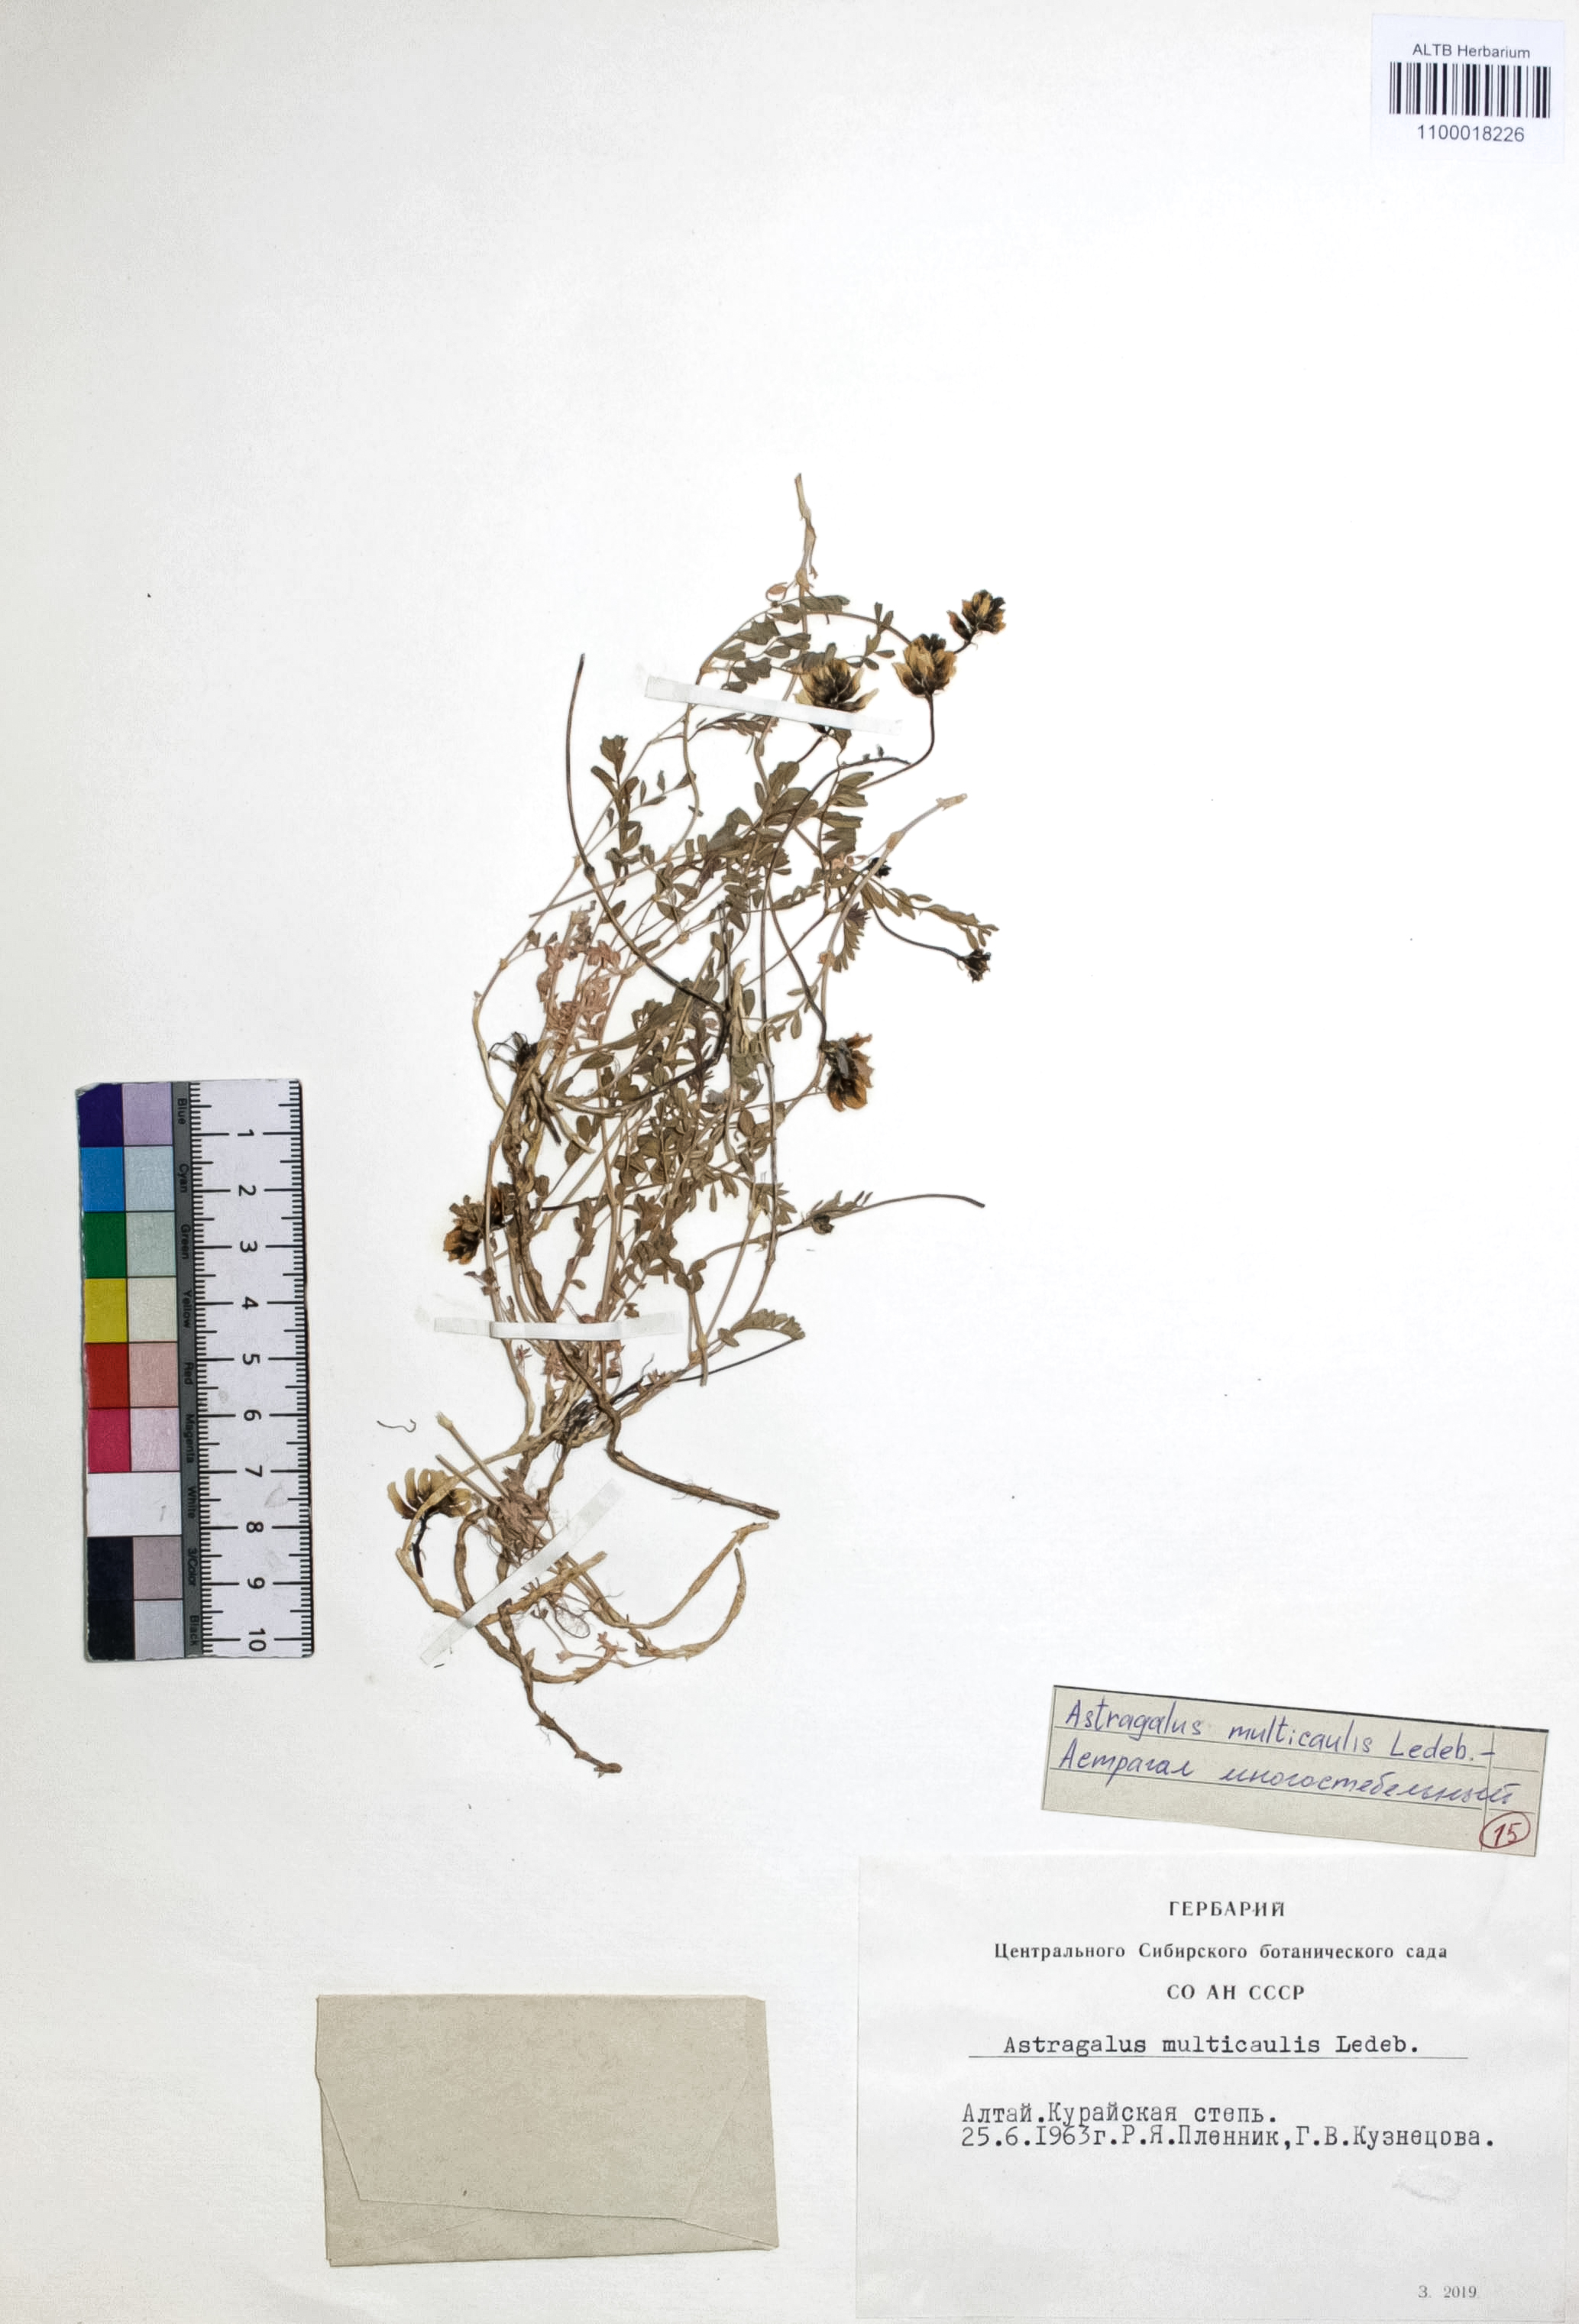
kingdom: Plantae
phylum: Tracheophyta
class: Magnoliopsida
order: Fabales
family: Fabaceae
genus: Astragalus
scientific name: Astragalus leptostachys
